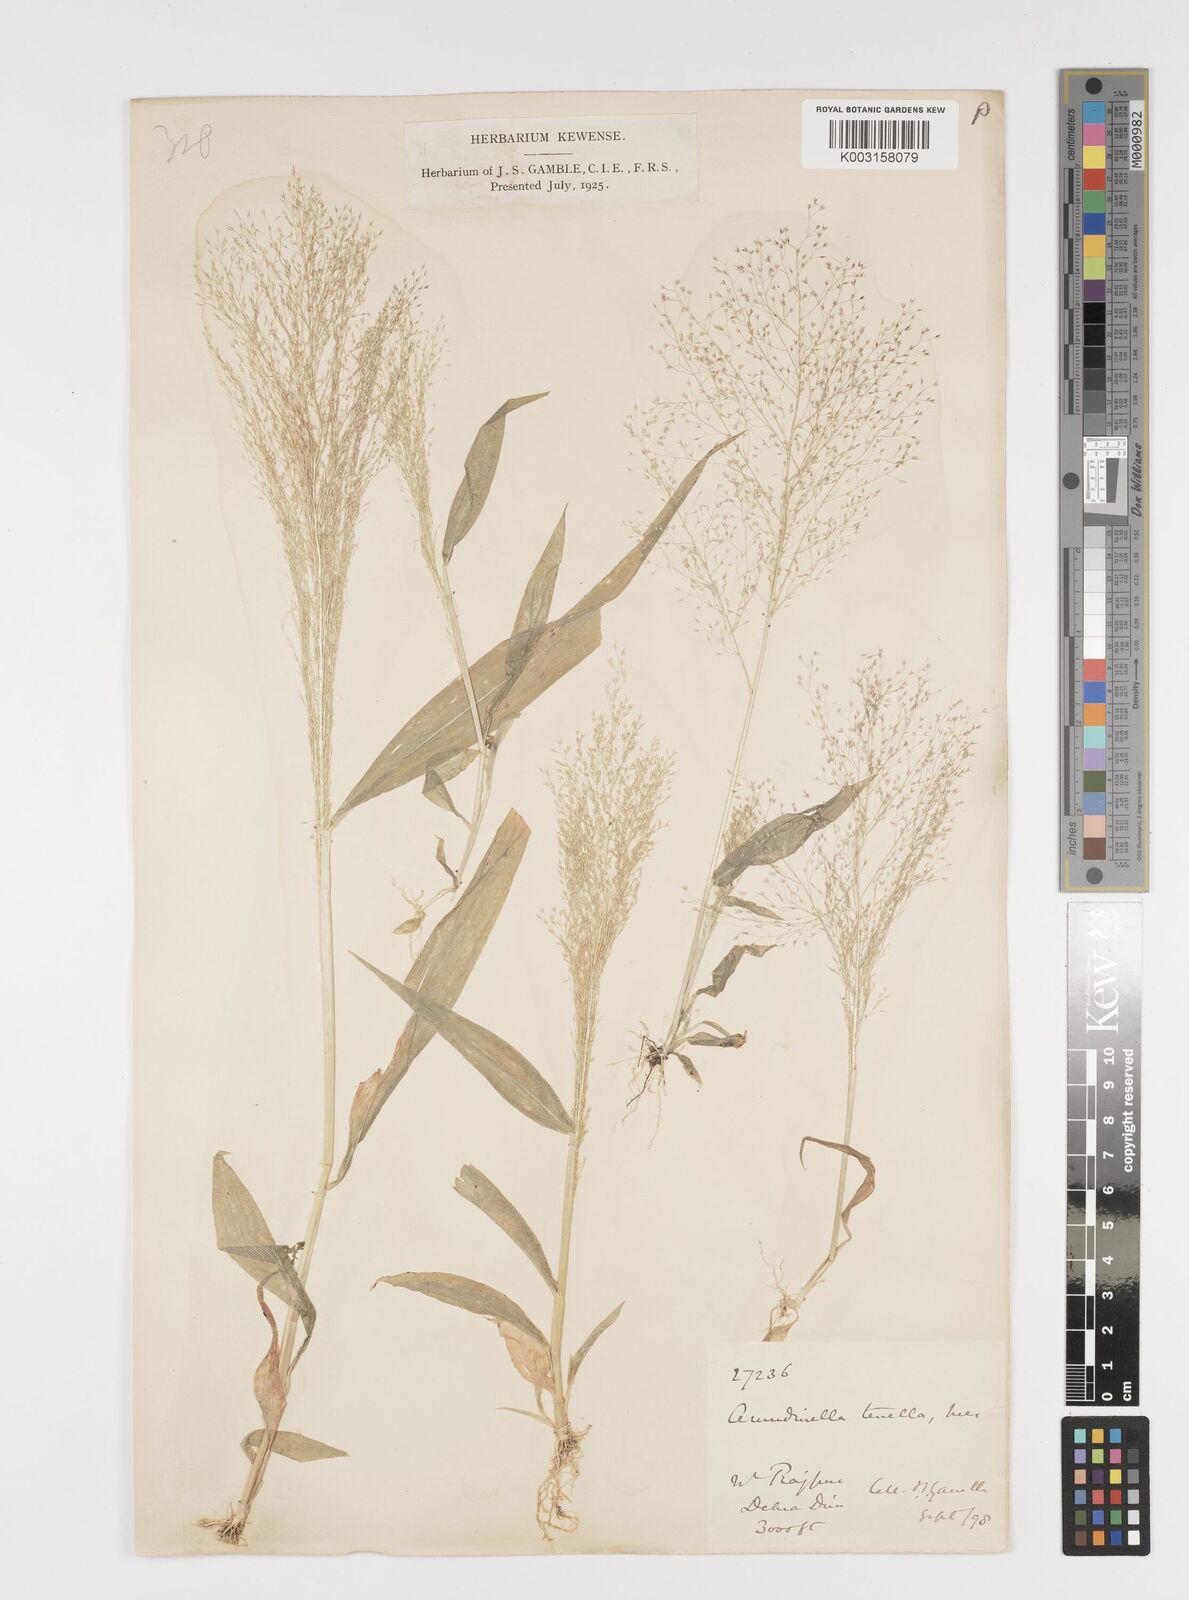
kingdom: Plantae
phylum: Tracheophyta
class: Liliopsida
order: Poales
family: Poaceae
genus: Arundinella
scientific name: Arundinella pumila
